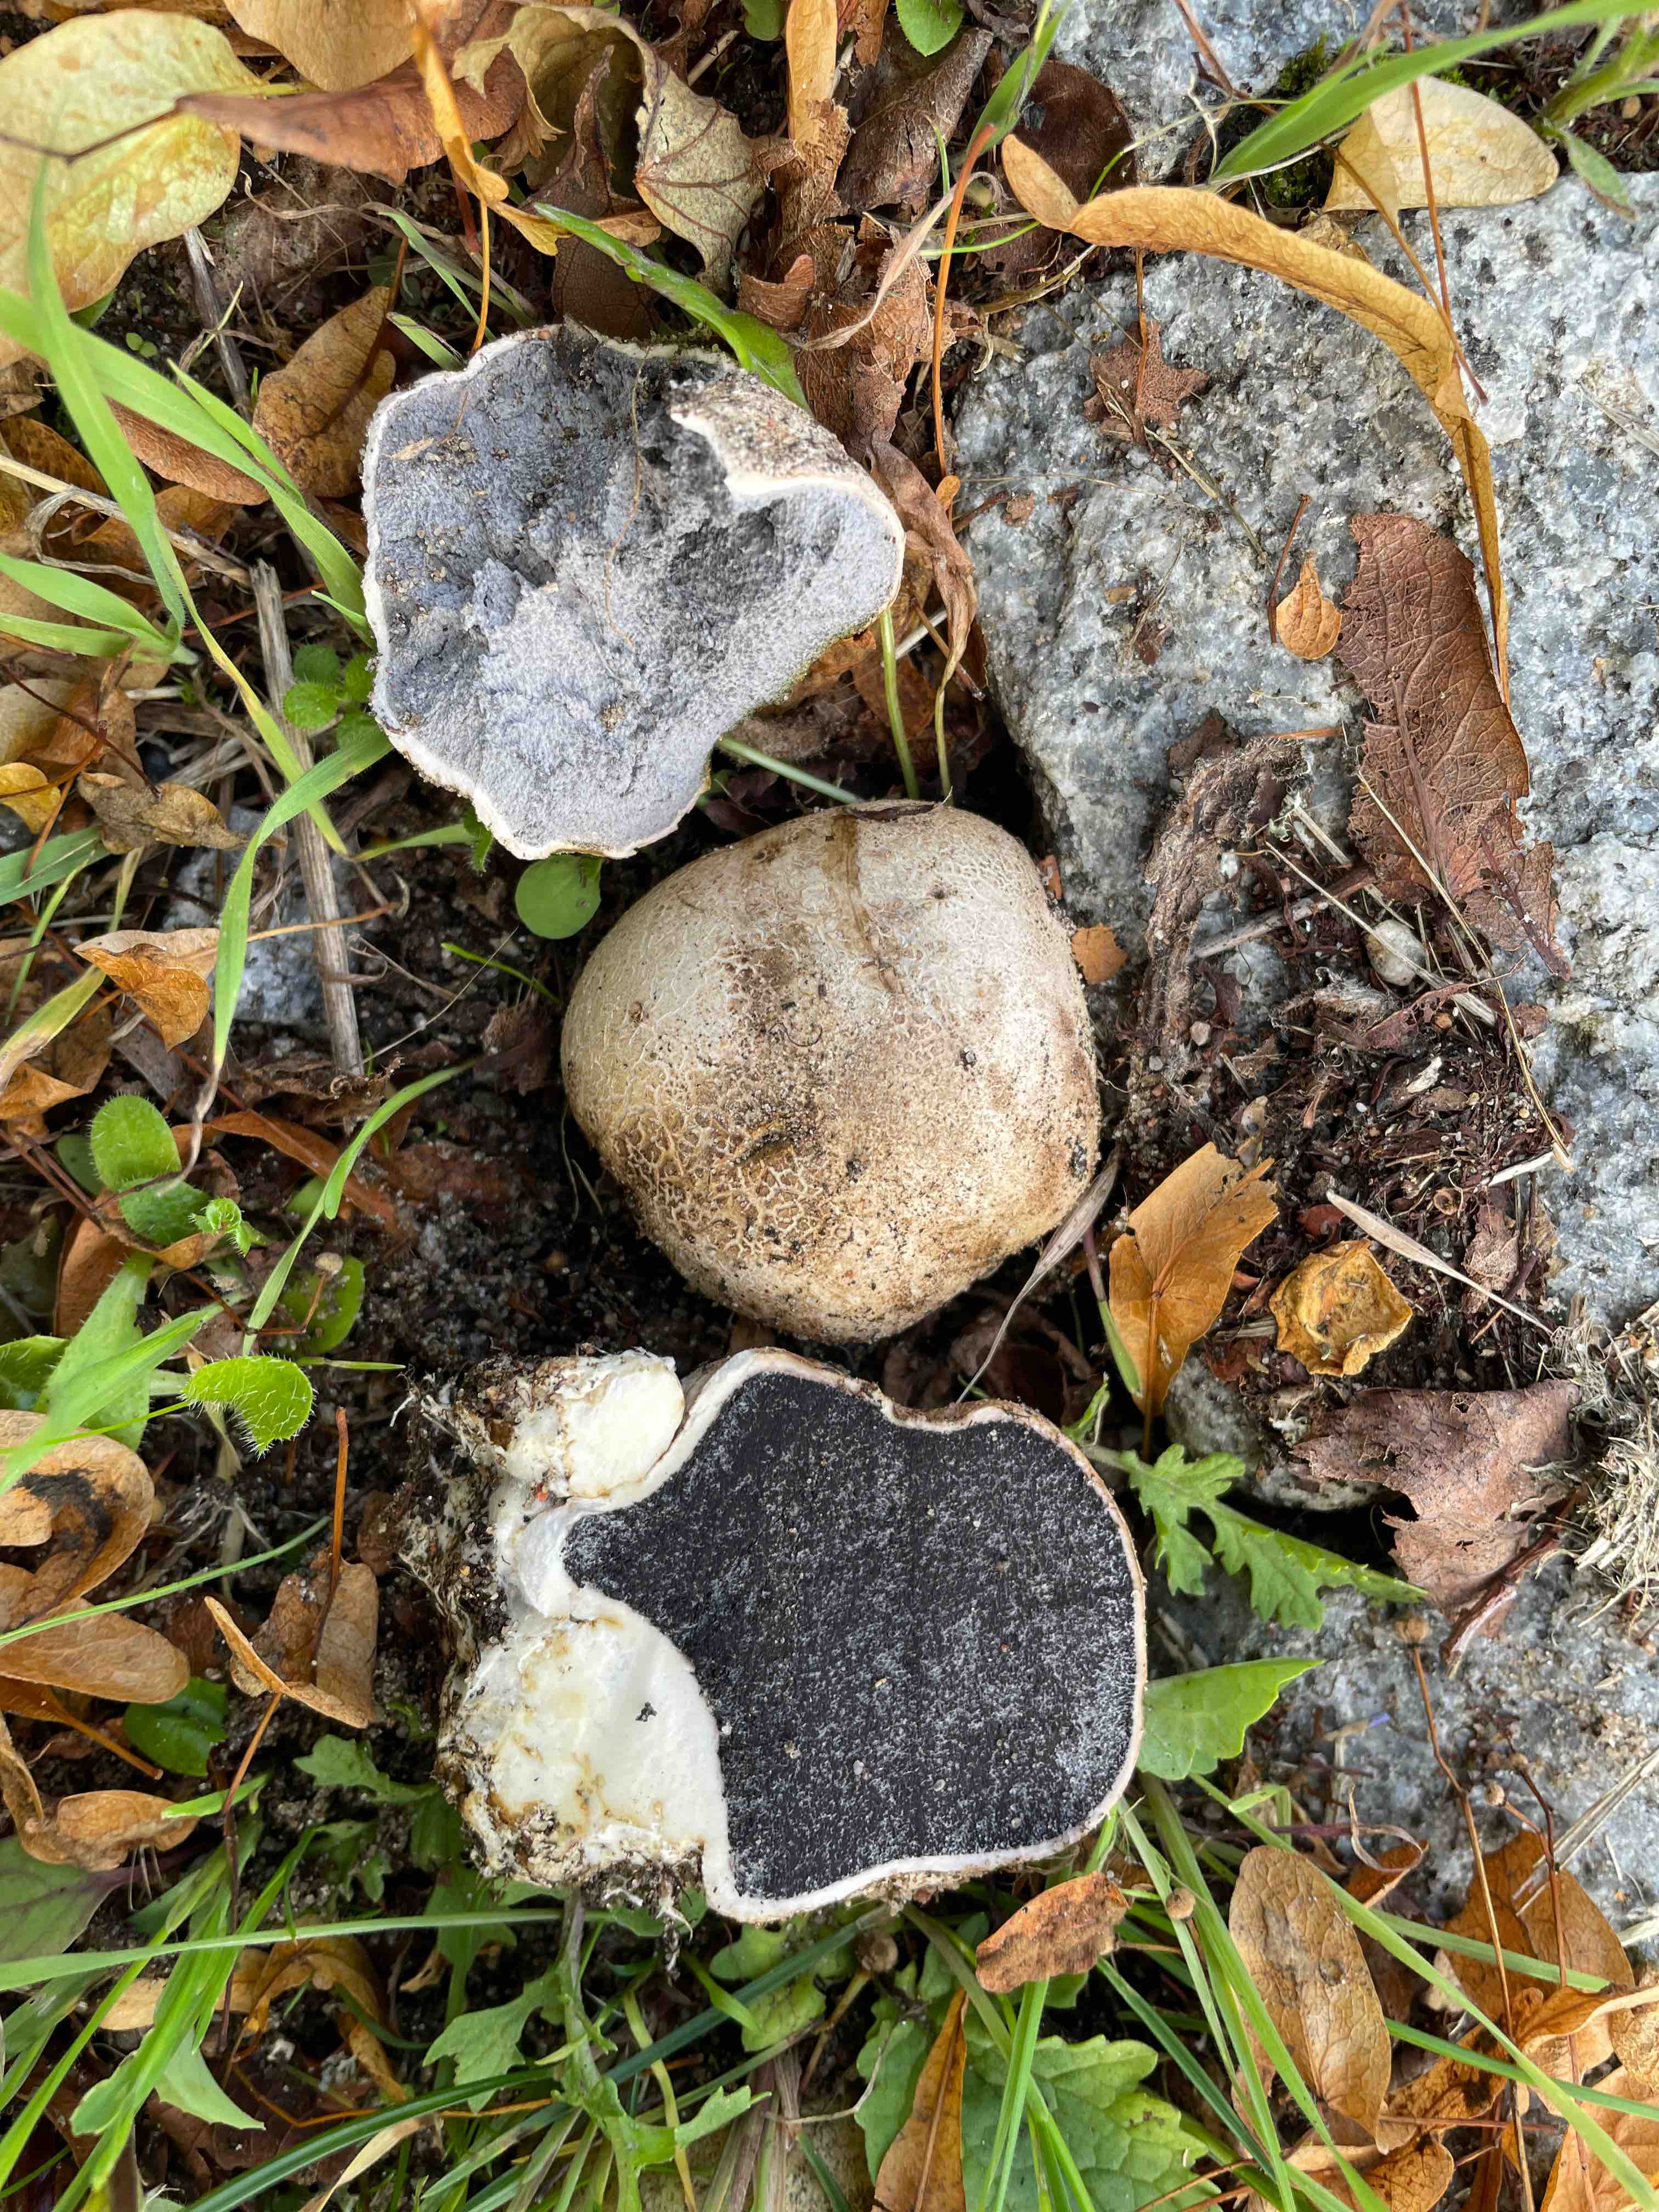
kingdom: Fungi
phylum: Basidiomycota
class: Agaricomycetes
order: Boletales
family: Sclerodermataceae
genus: Scleroderma
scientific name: Scleroderma bovista
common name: bovist-bruskbold
